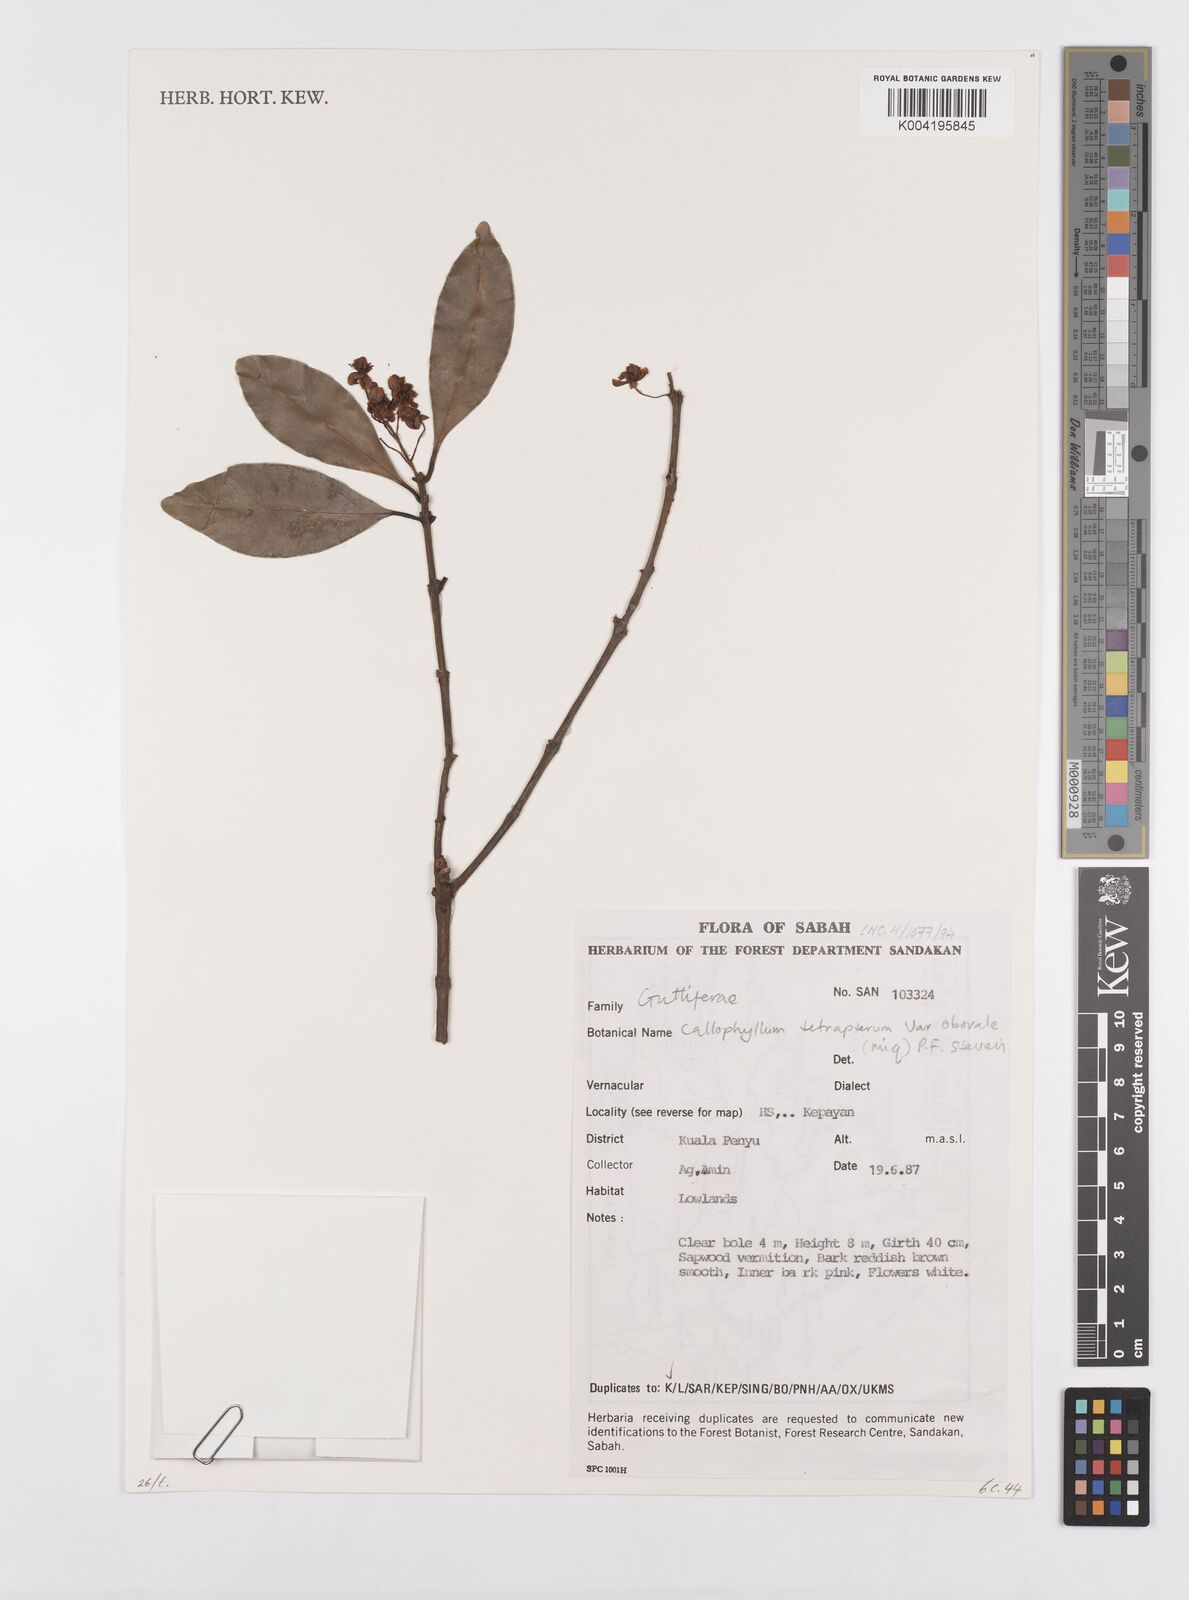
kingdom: Plantae
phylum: Tracheophyta
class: Magnoliopsida
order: Malpighiales
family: Calophyllaceae
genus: Calophyllum
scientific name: Calophyllum tetrapterum
